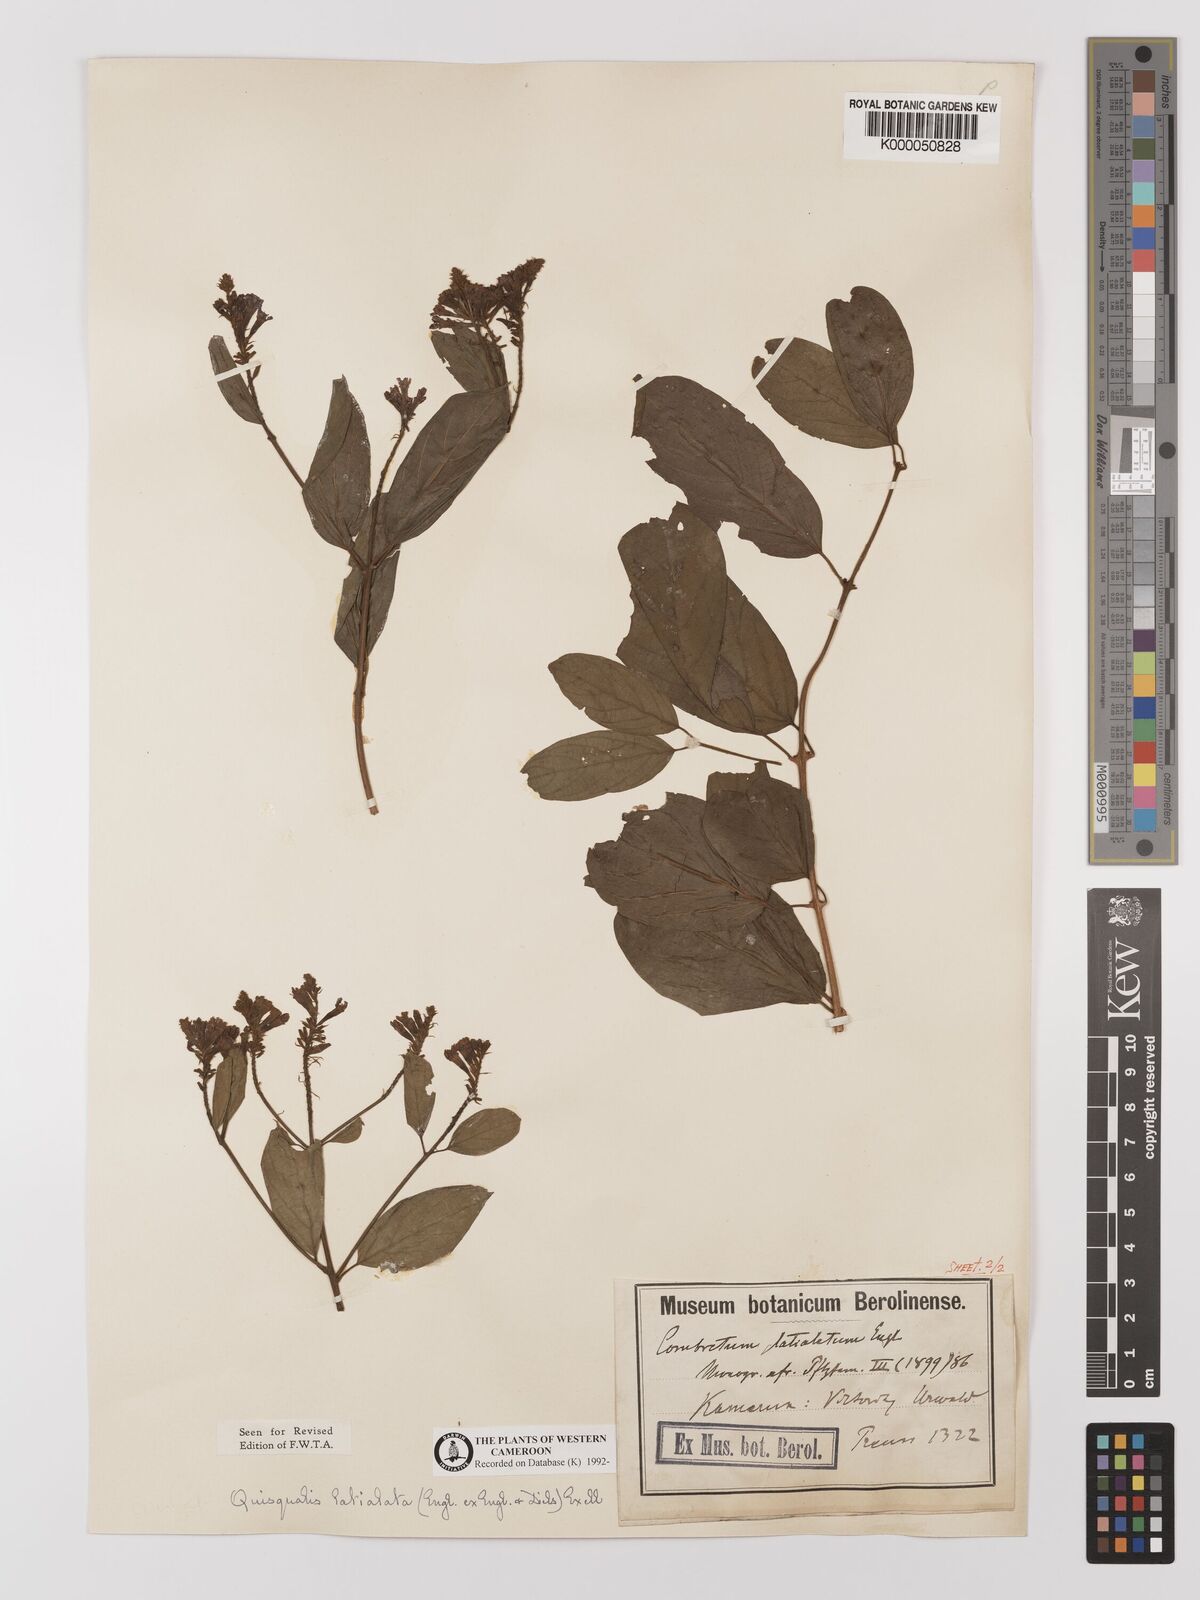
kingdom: Plantae
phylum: Tracheophyta
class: Magnoliopsida
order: Myrtales
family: Combretaceae
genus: Combretum
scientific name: Combretum latialatum
